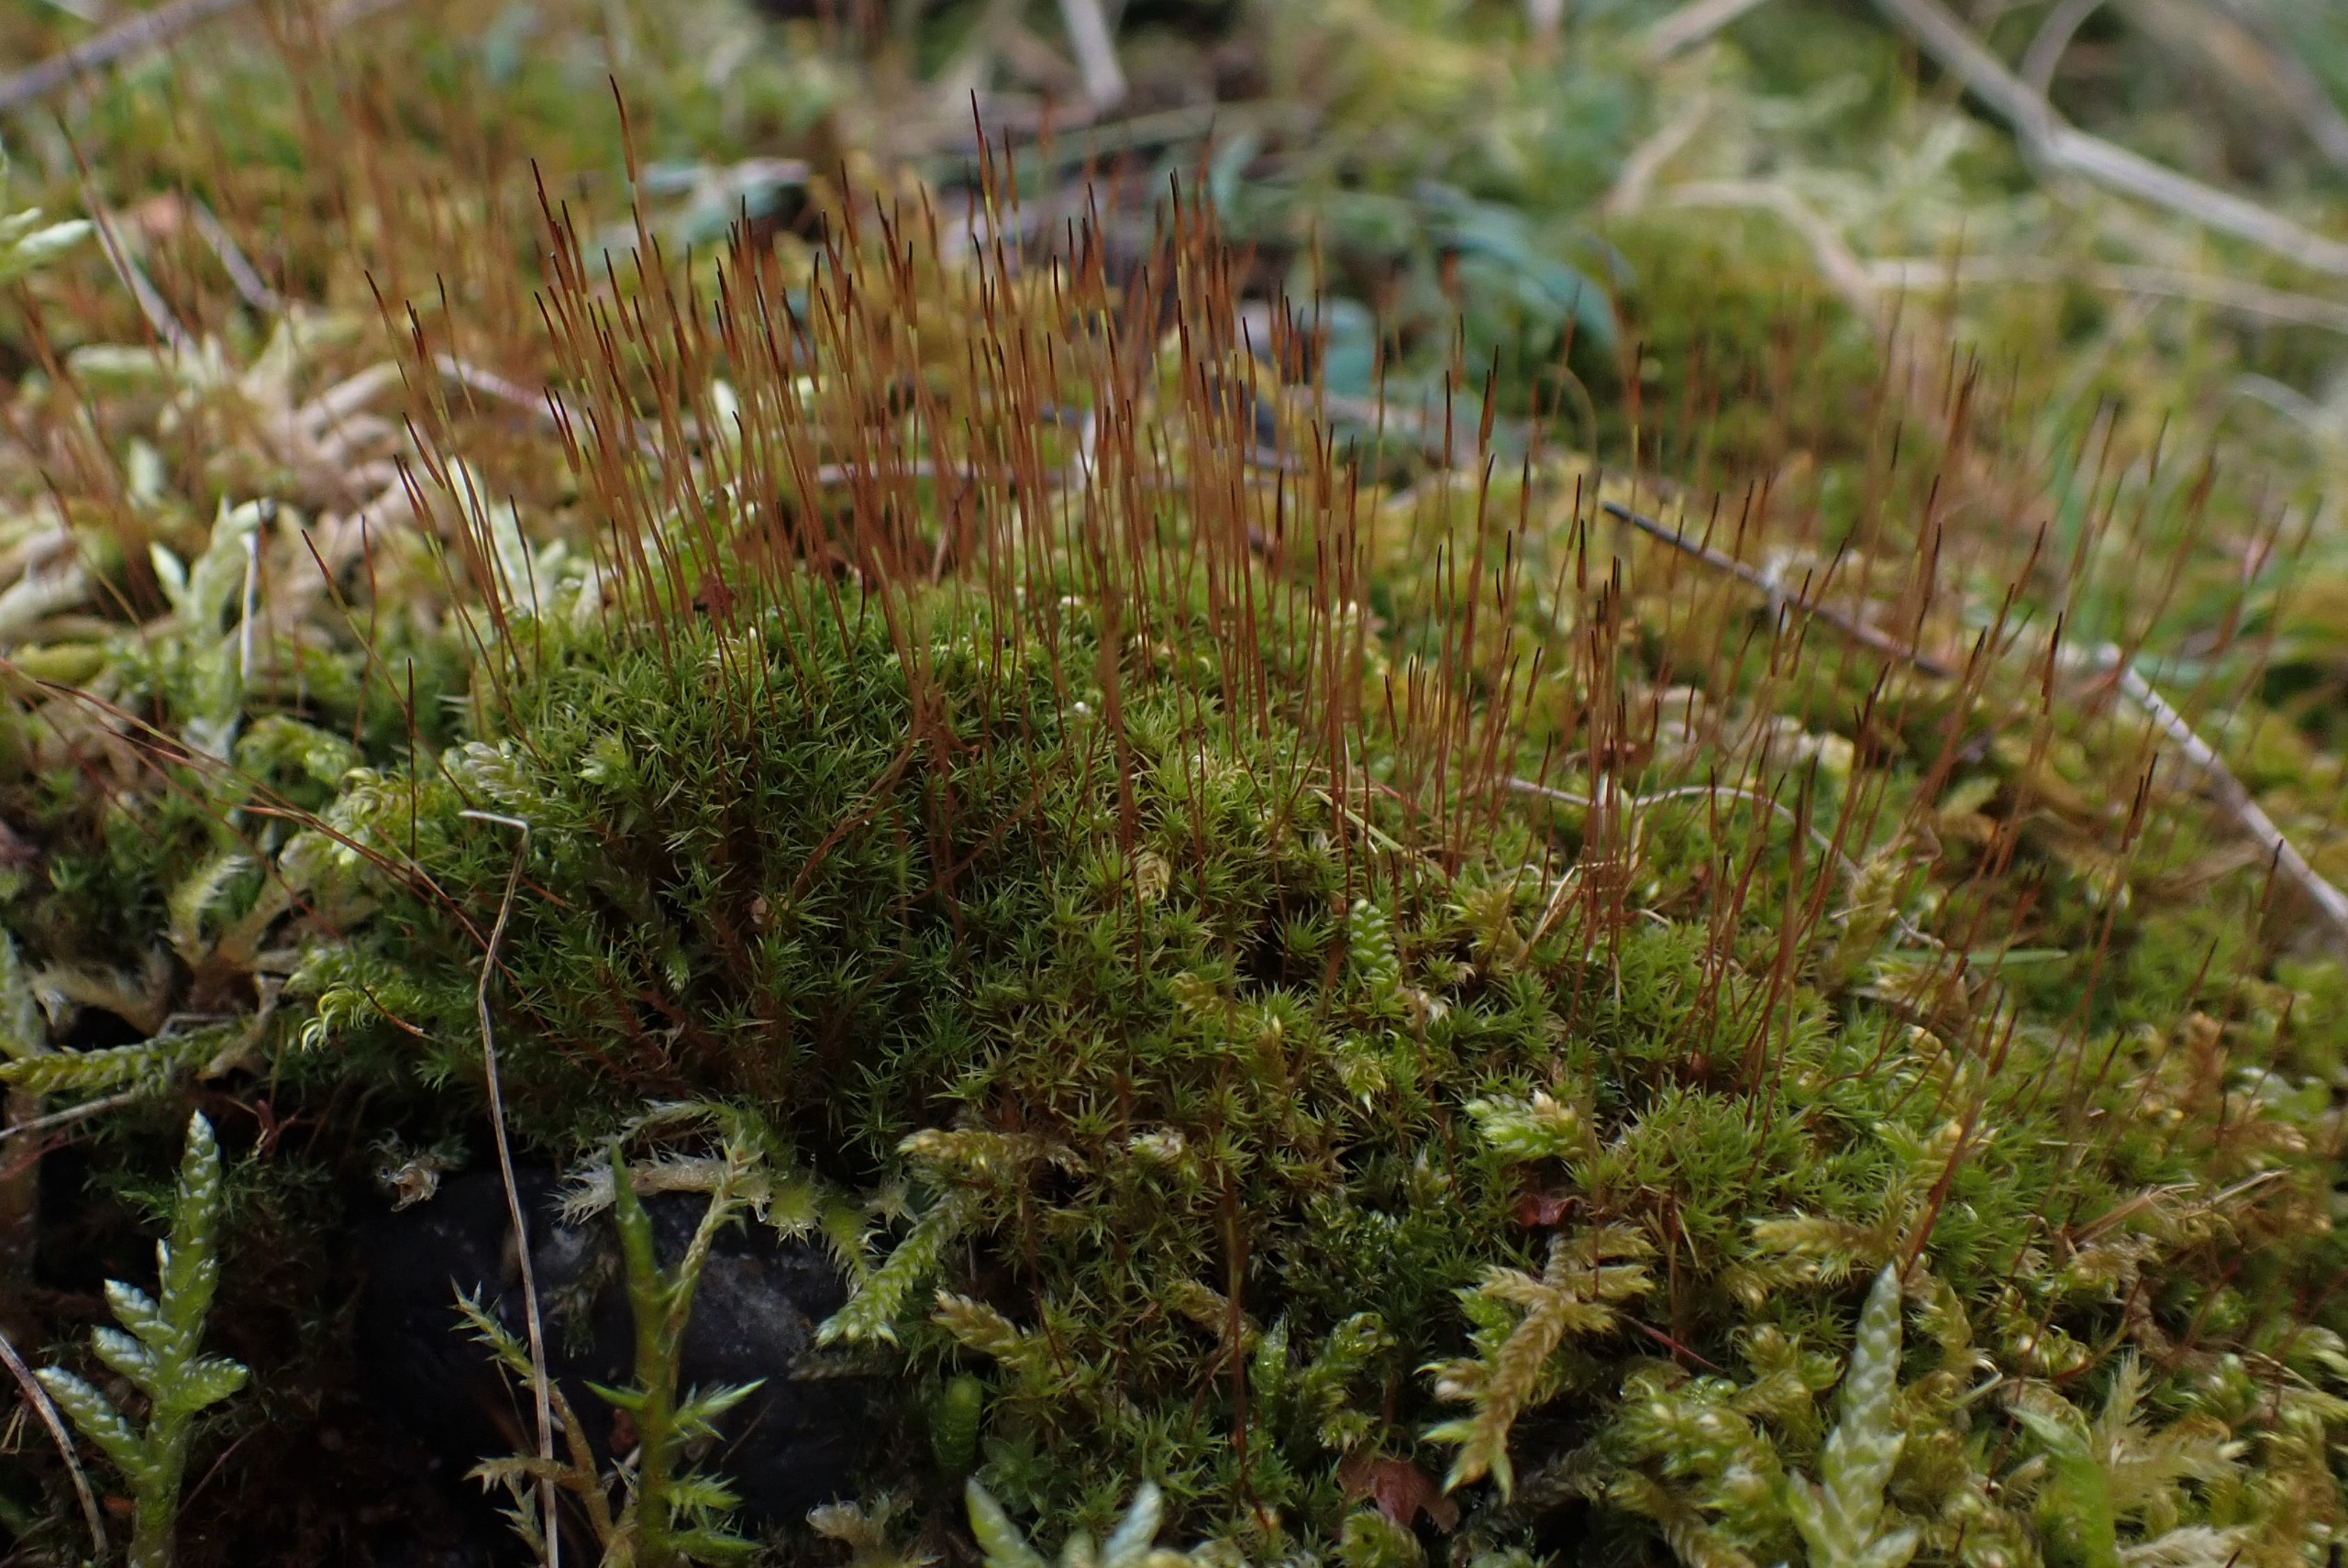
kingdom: Plantae
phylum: Bryophyta
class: Bryopsida
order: Dicranales
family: Ditrichaceae
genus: Ceratodon
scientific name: Ceratodon purpureus
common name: Rød horntand
